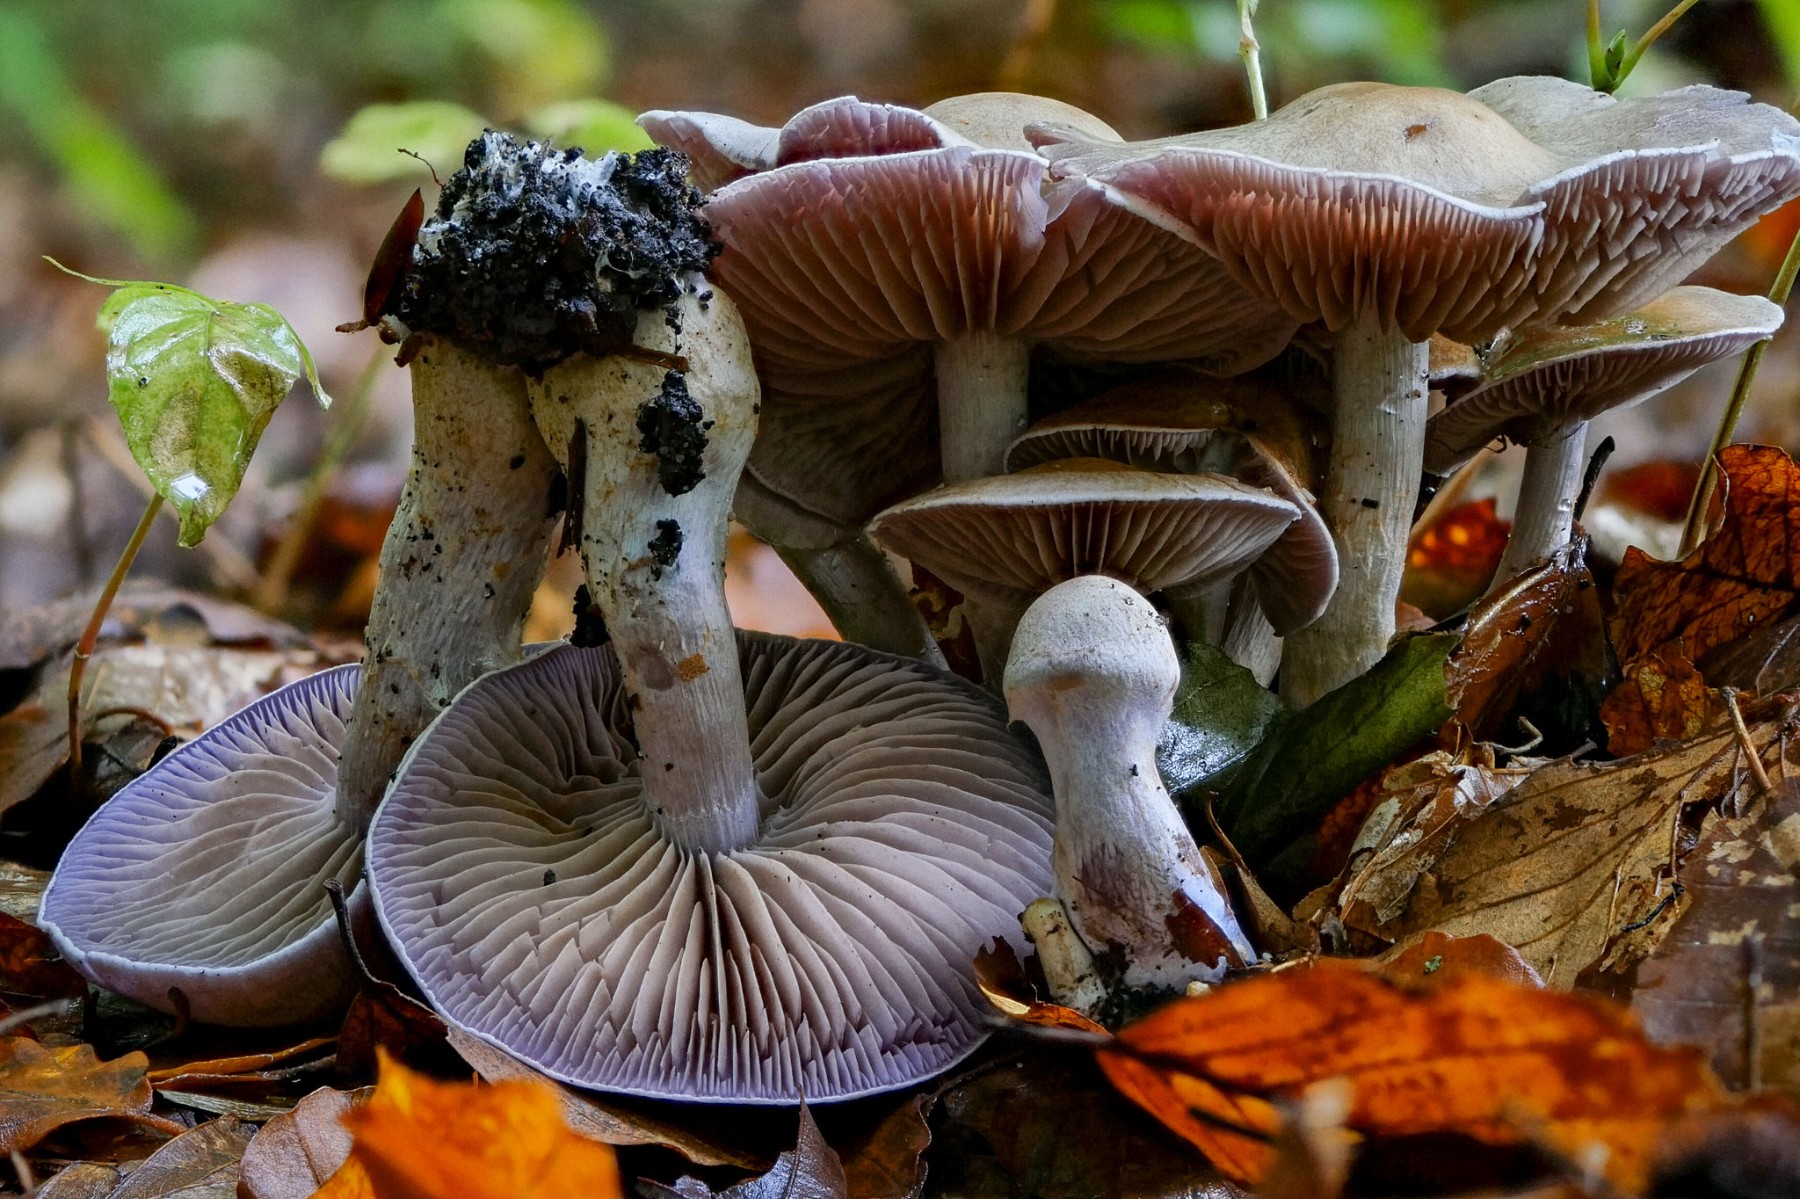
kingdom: Fungi
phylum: Basidiomycota
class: Agaricomycetes
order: Agaricales
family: Cortinariaceae
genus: Cortinarius
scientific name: Cortinarius
